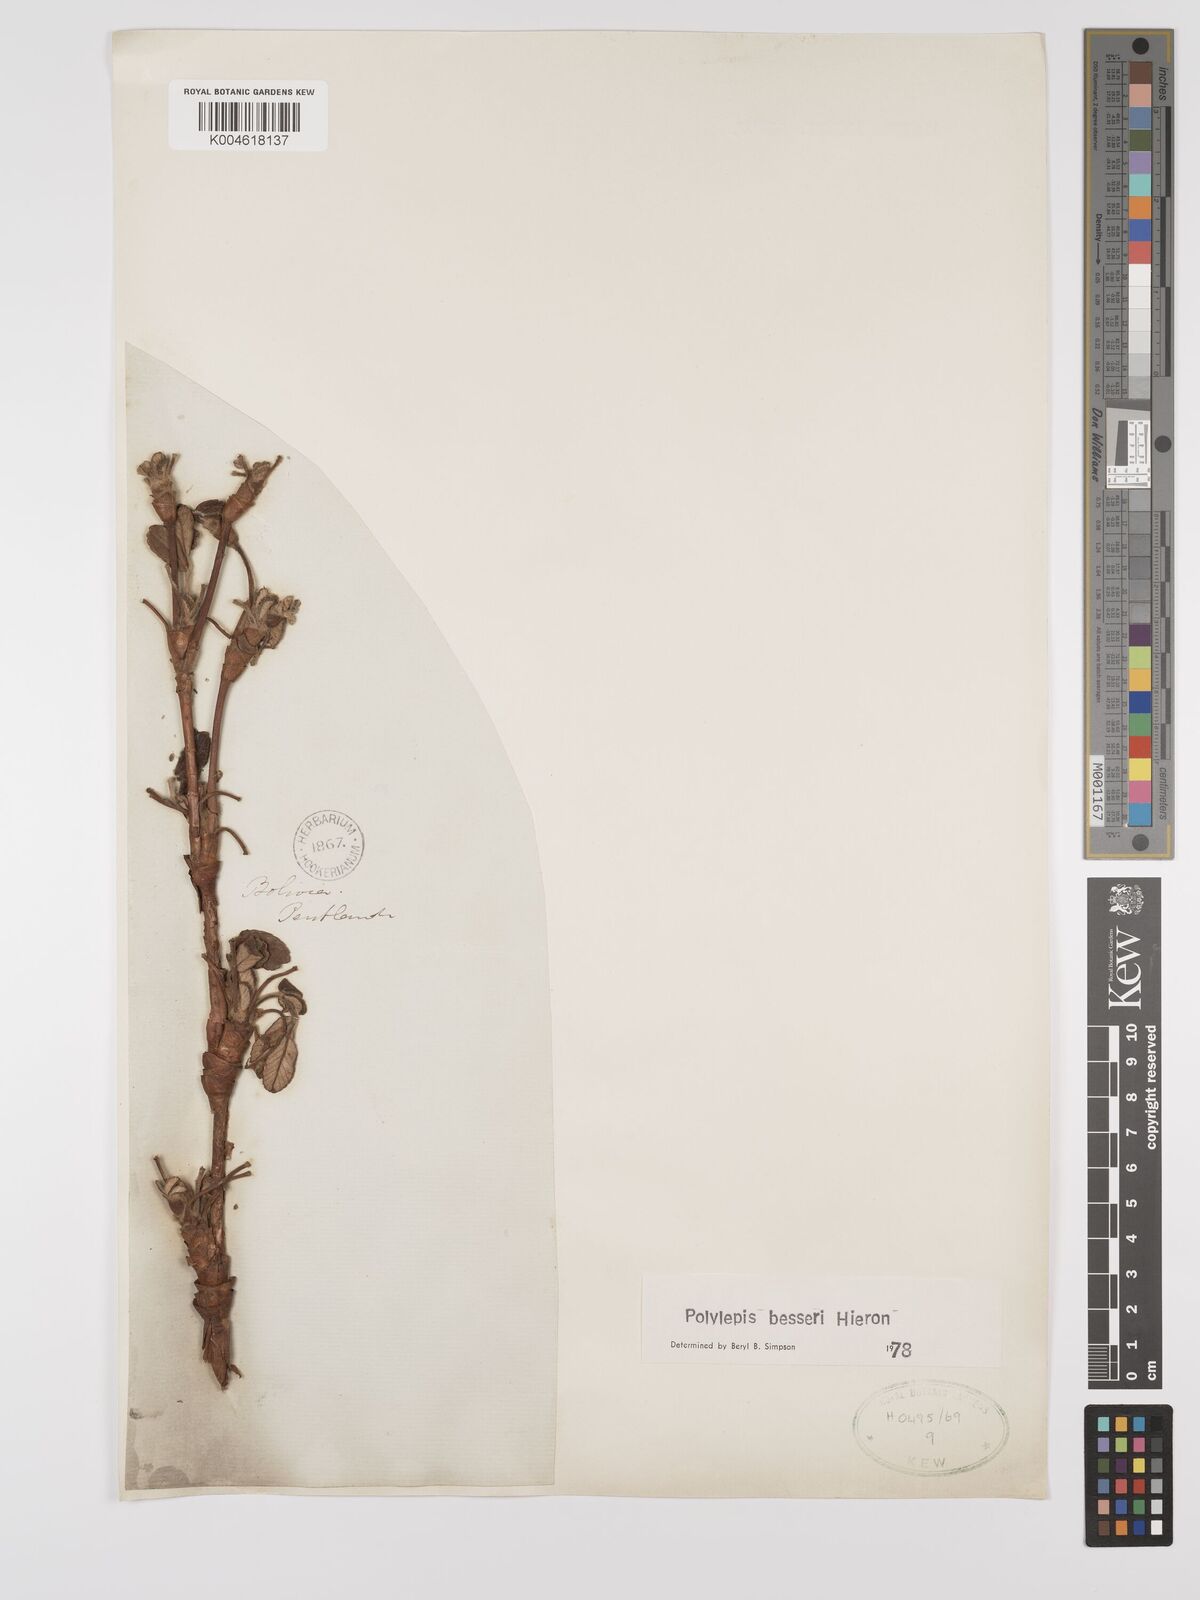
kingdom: Plantae
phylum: Tracheophyta
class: Magnoliopsida
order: Rosales
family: Rosaceae
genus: Polylepis
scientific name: Polylepis
